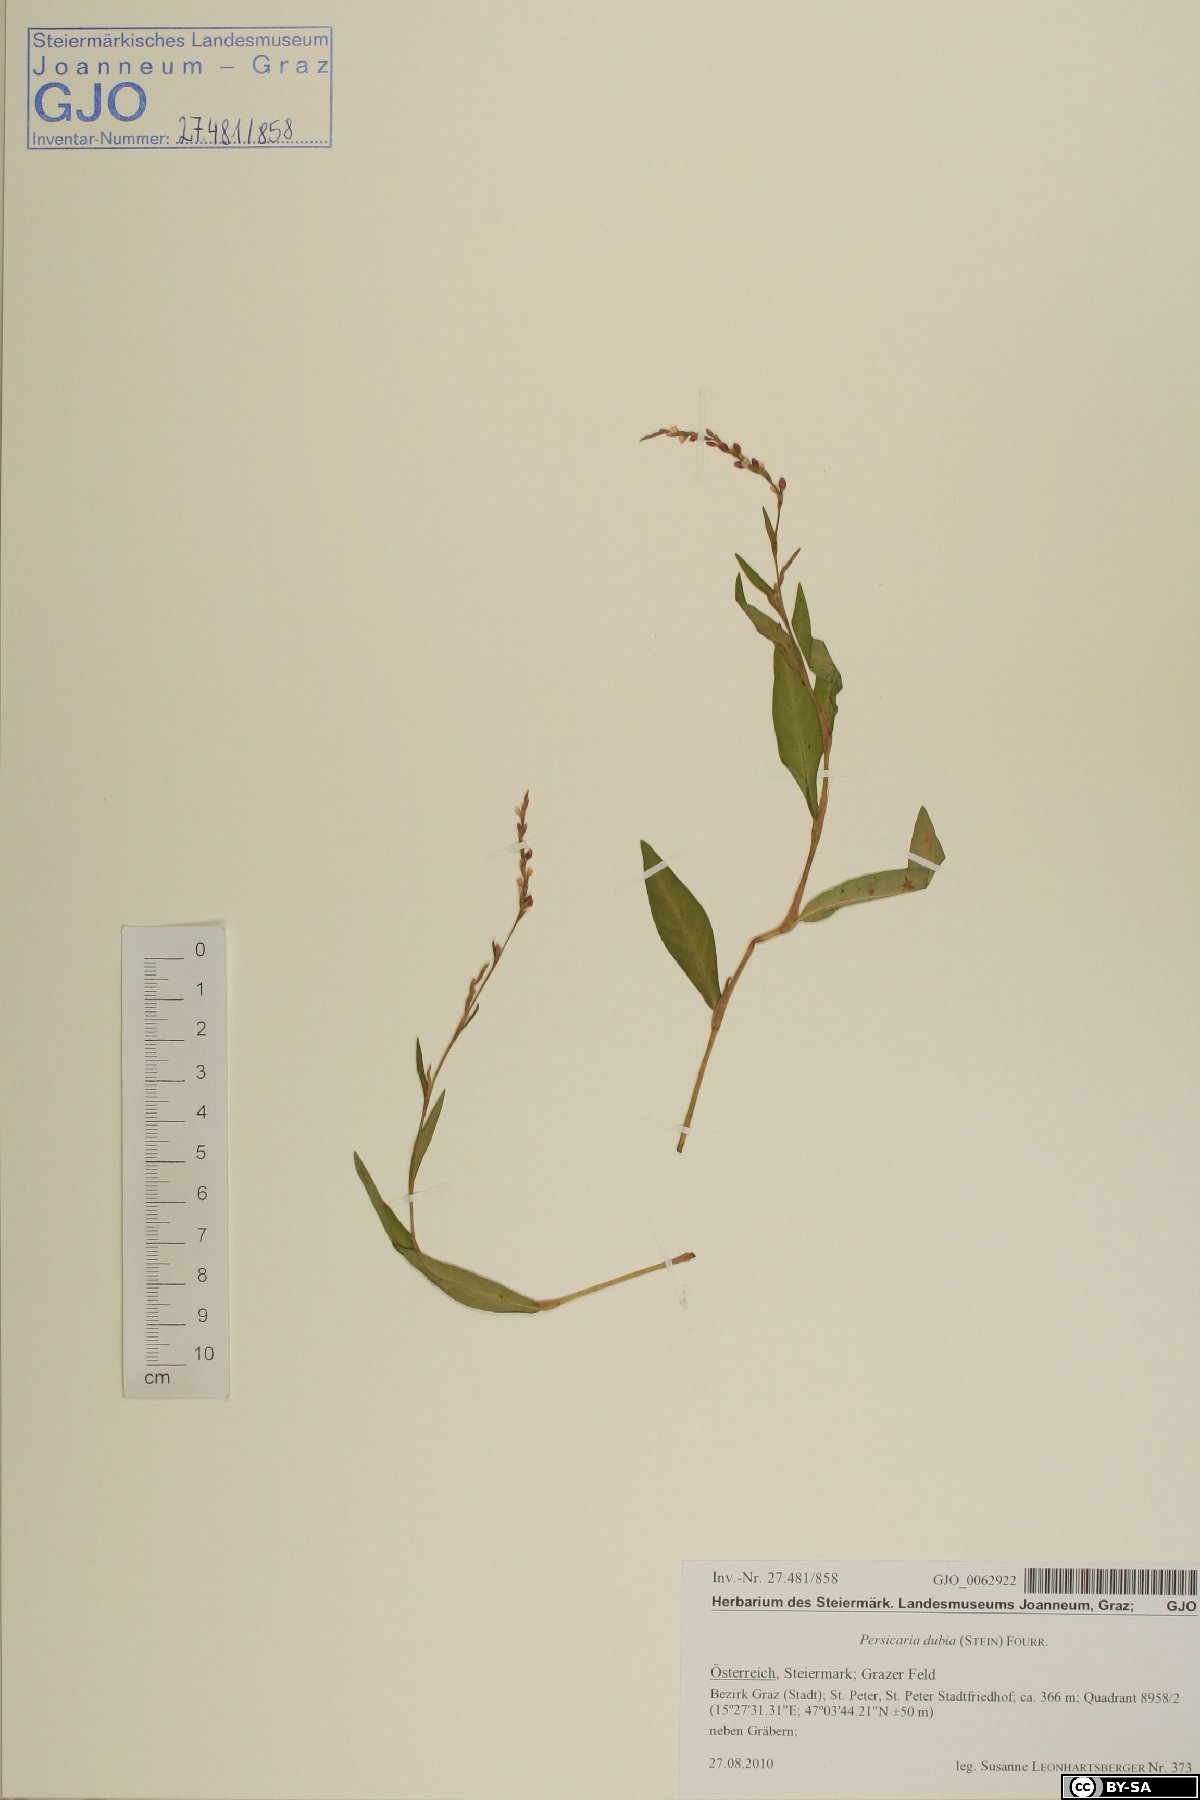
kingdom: Plantae
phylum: Tracheophyta
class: Magnoliopsida
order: Caryophyllales
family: Polygonaceae
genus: Persicaria
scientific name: Persicaria mitis
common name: Tasteless water-pepper
